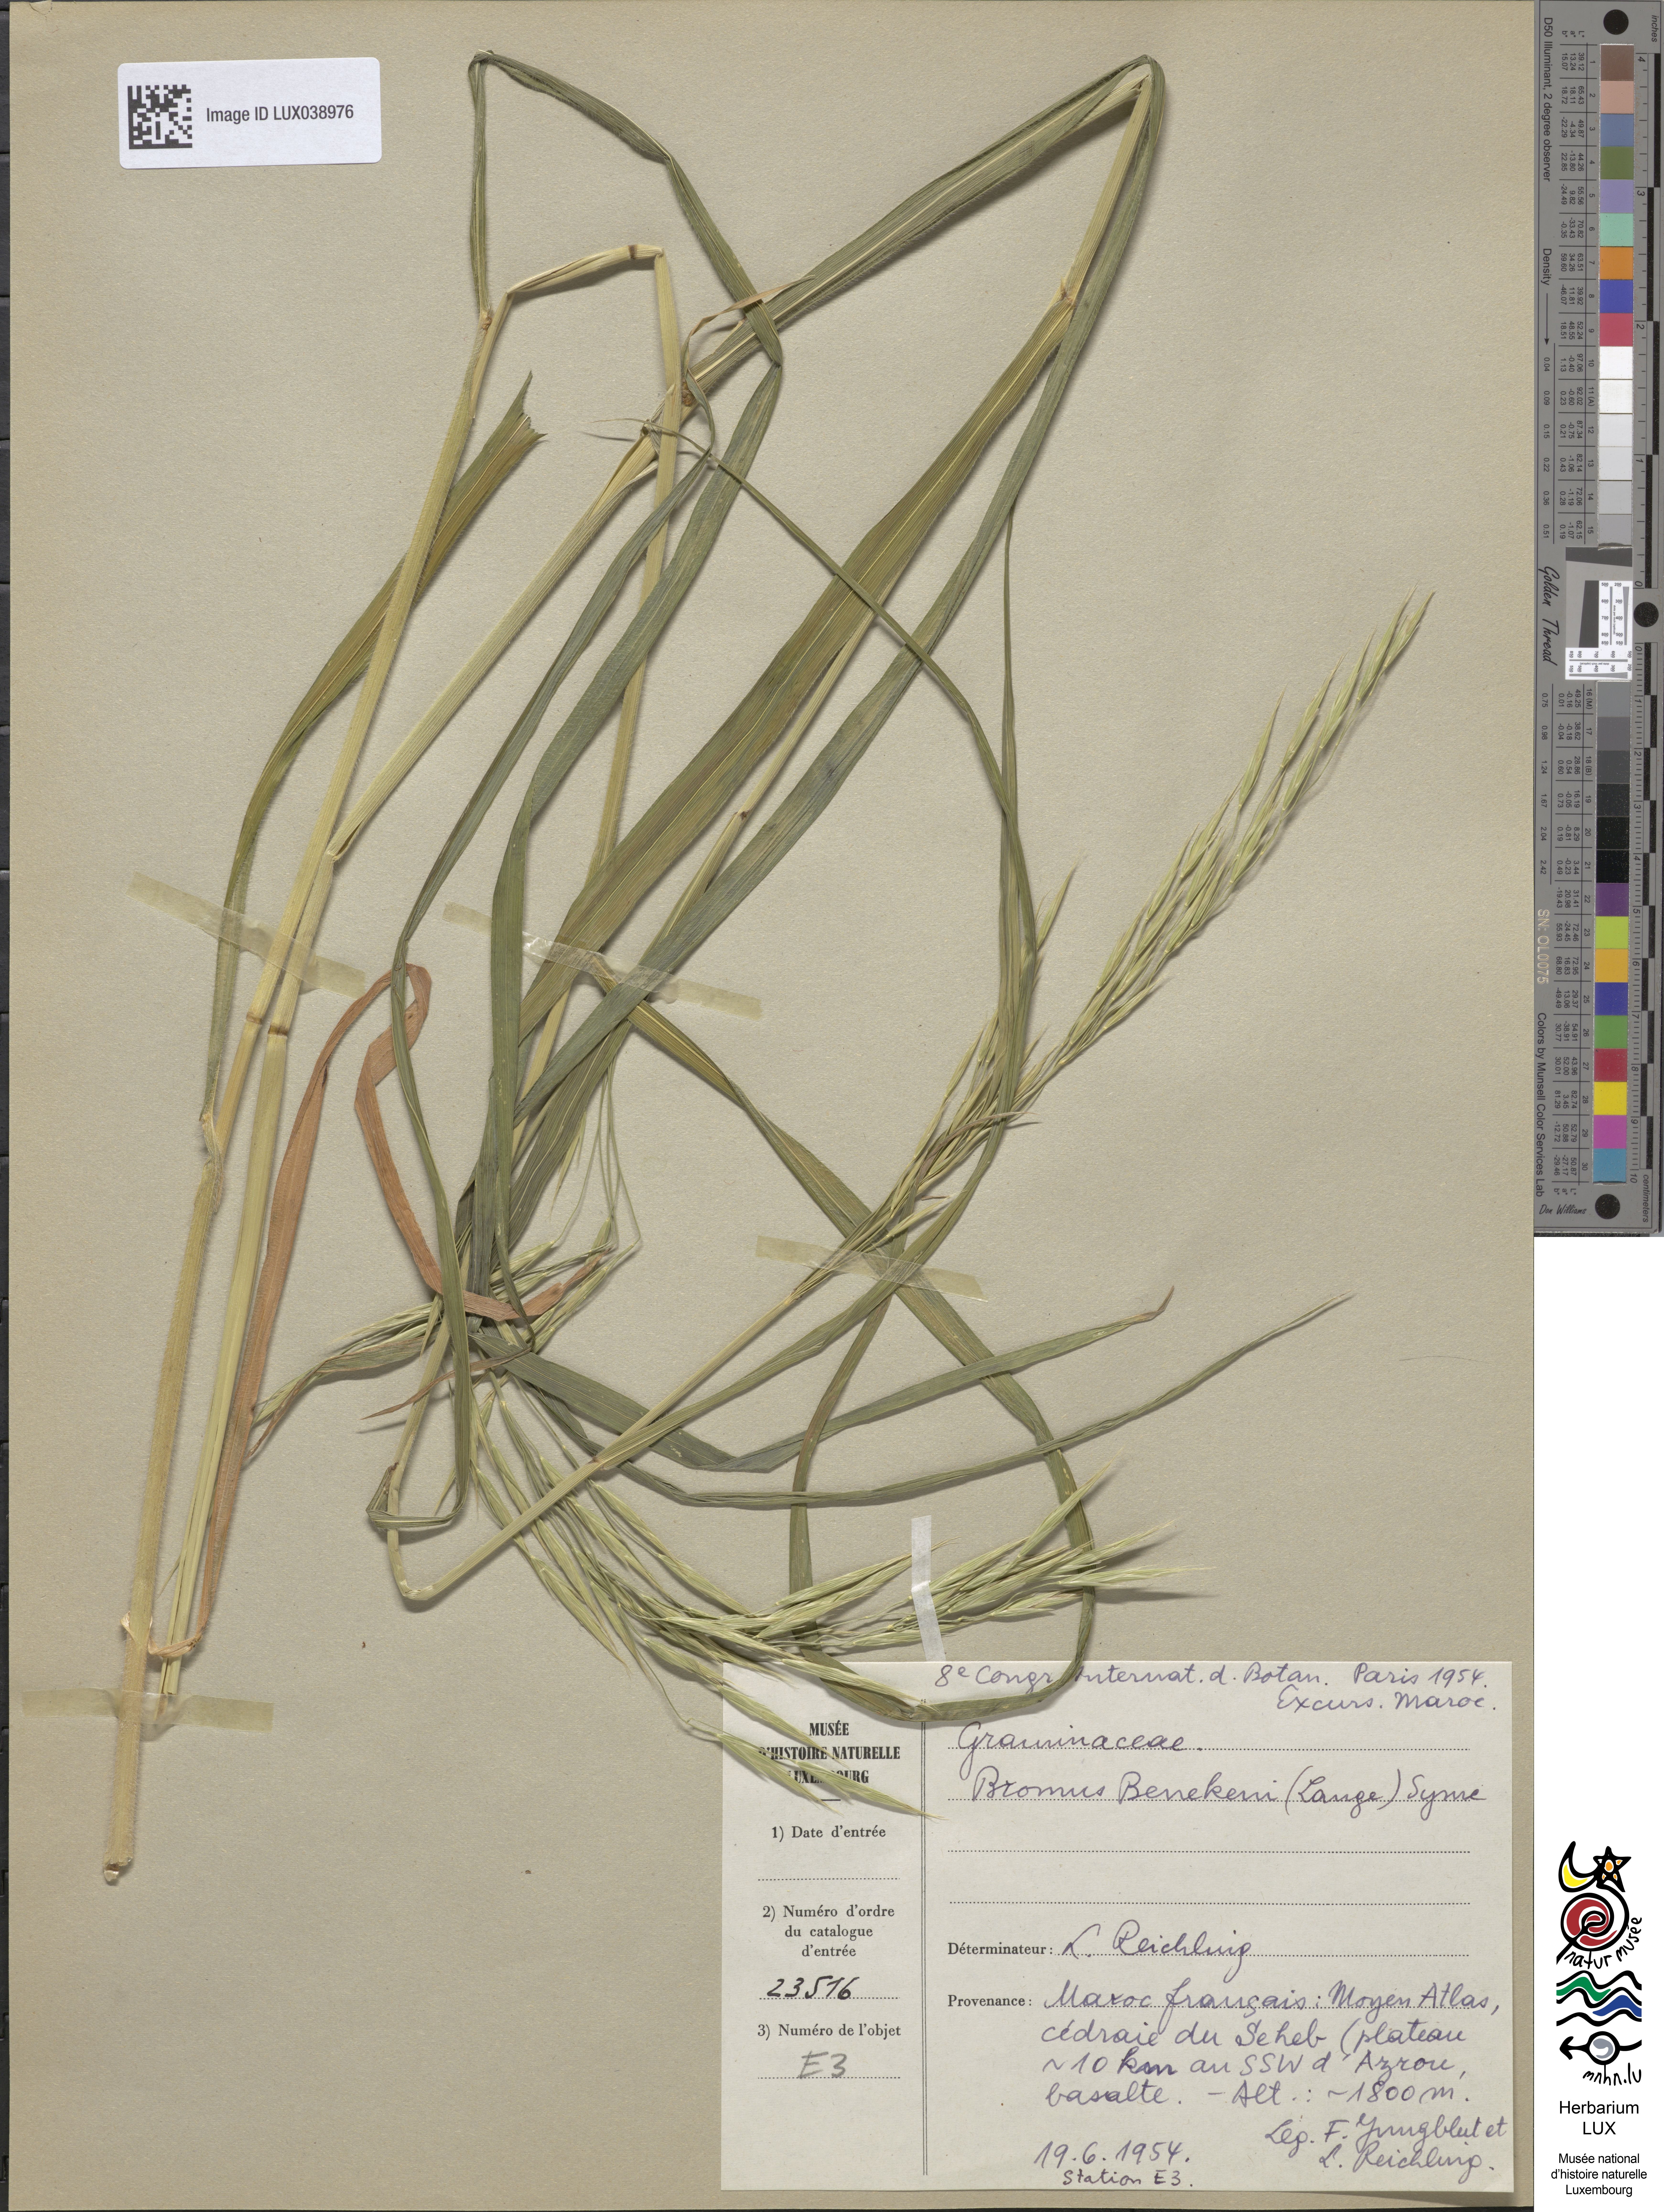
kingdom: Plantae
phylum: Tracheophyta
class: Liliopsida
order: Poales
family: Poaceae
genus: Bromus
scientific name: Bromus benekenii
